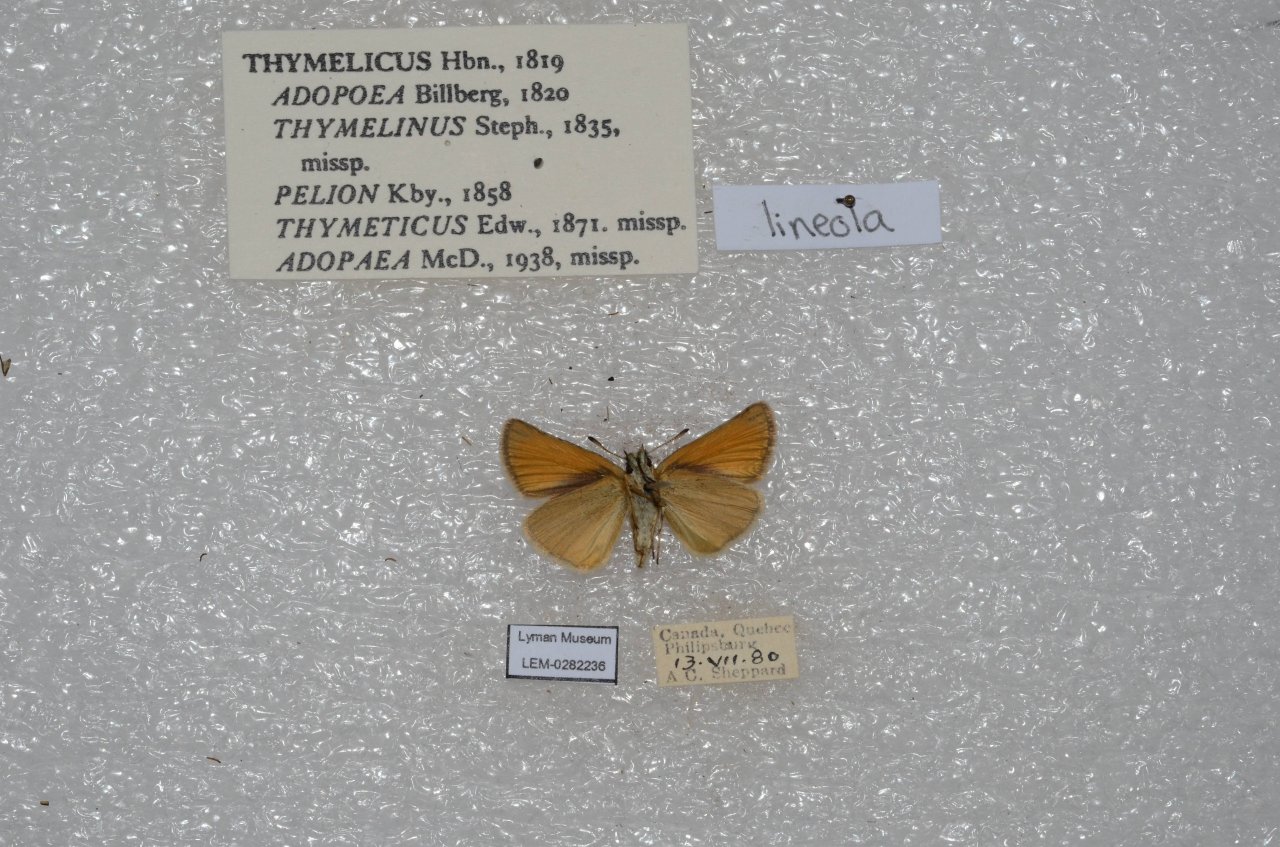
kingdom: Animalia
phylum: Arthropoda
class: Insecta
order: Lepidoptera
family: Hesperiidae
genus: Thymelicus
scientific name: Thymelicus lineola
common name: European Skipper
